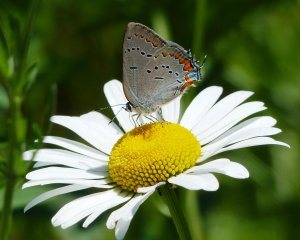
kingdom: Animalia
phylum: Arthropoda
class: Insecta
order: Lepidoptera
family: Lycaenidae
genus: Strymon
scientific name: Strymon acadica
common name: Acadian Hairstreak
